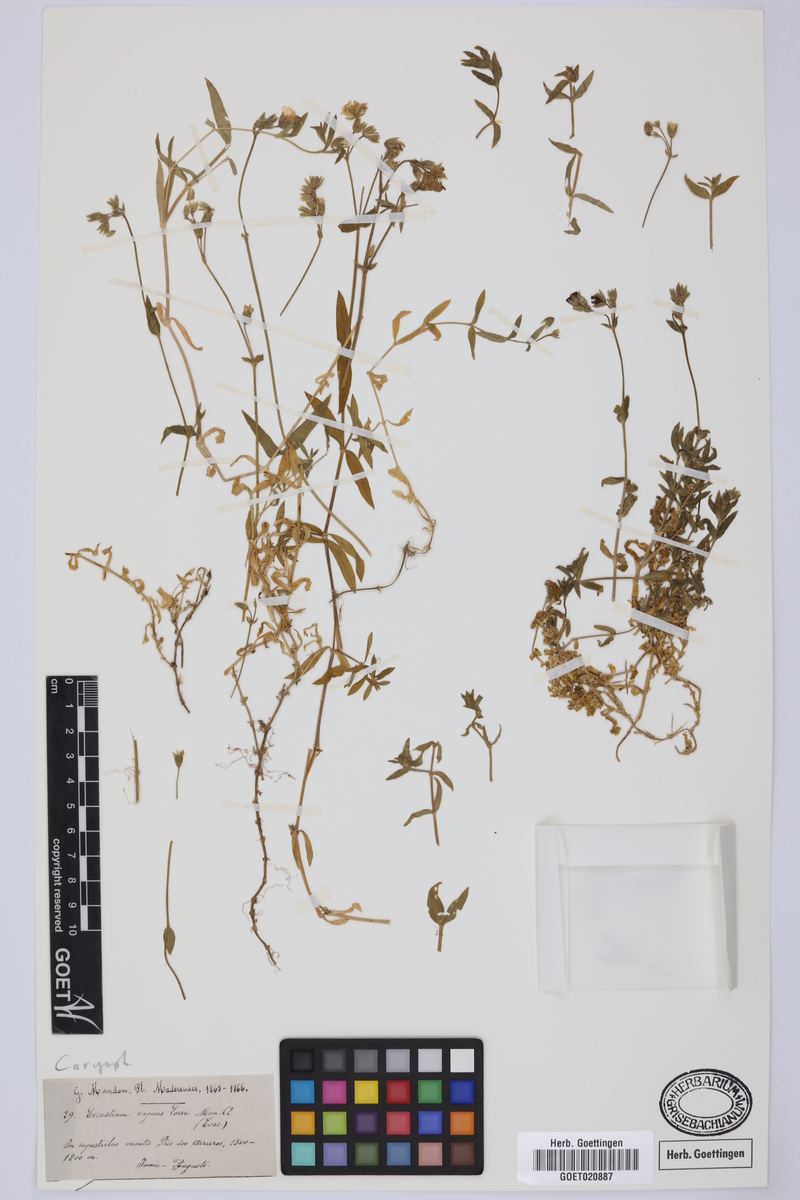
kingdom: Plantae
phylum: Tracheophyta
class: Magnoliopsida
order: Caryophyllales
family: Caryophyllaceae
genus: Cerastium
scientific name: Cerastium vagans
